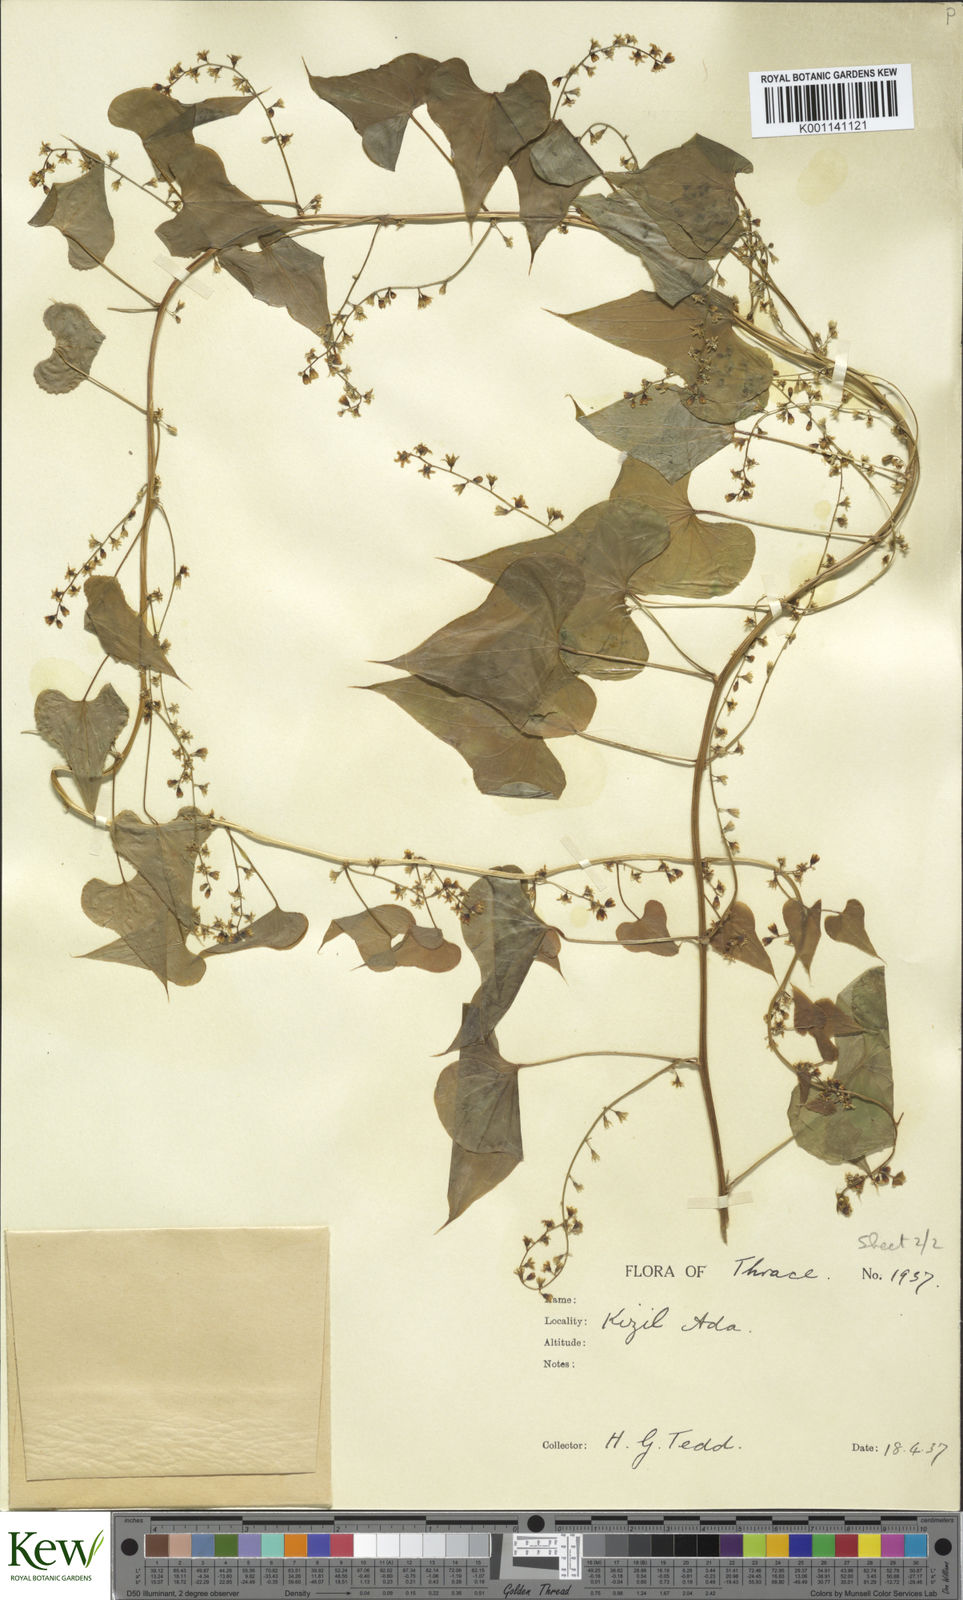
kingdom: Plantae
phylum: Tracheophyta
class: Liliopsida
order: Dioscoreales
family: Dioscoreaceae
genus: Dioscorea
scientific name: Dioscorea communis
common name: Black-bindweed
